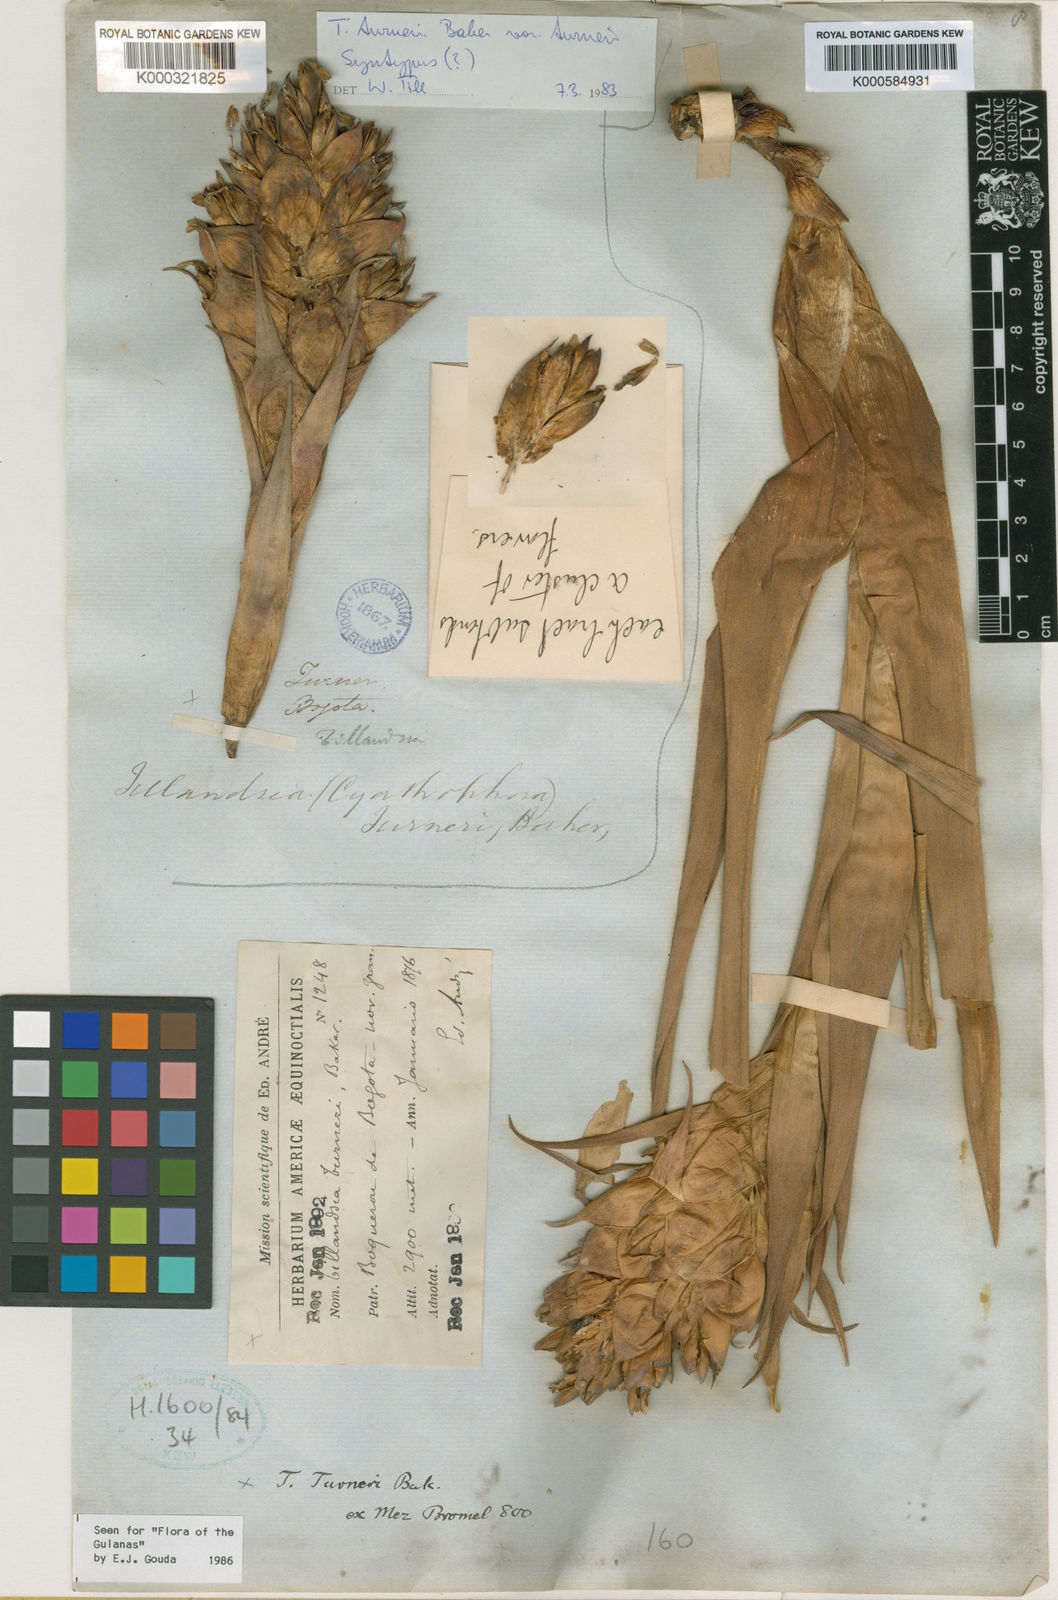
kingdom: Plantae
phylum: Tracheophyta
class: Liliopsida
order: Poales
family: Bromeliaceae
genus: Tillandsia
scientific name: Tillandsia turneri
